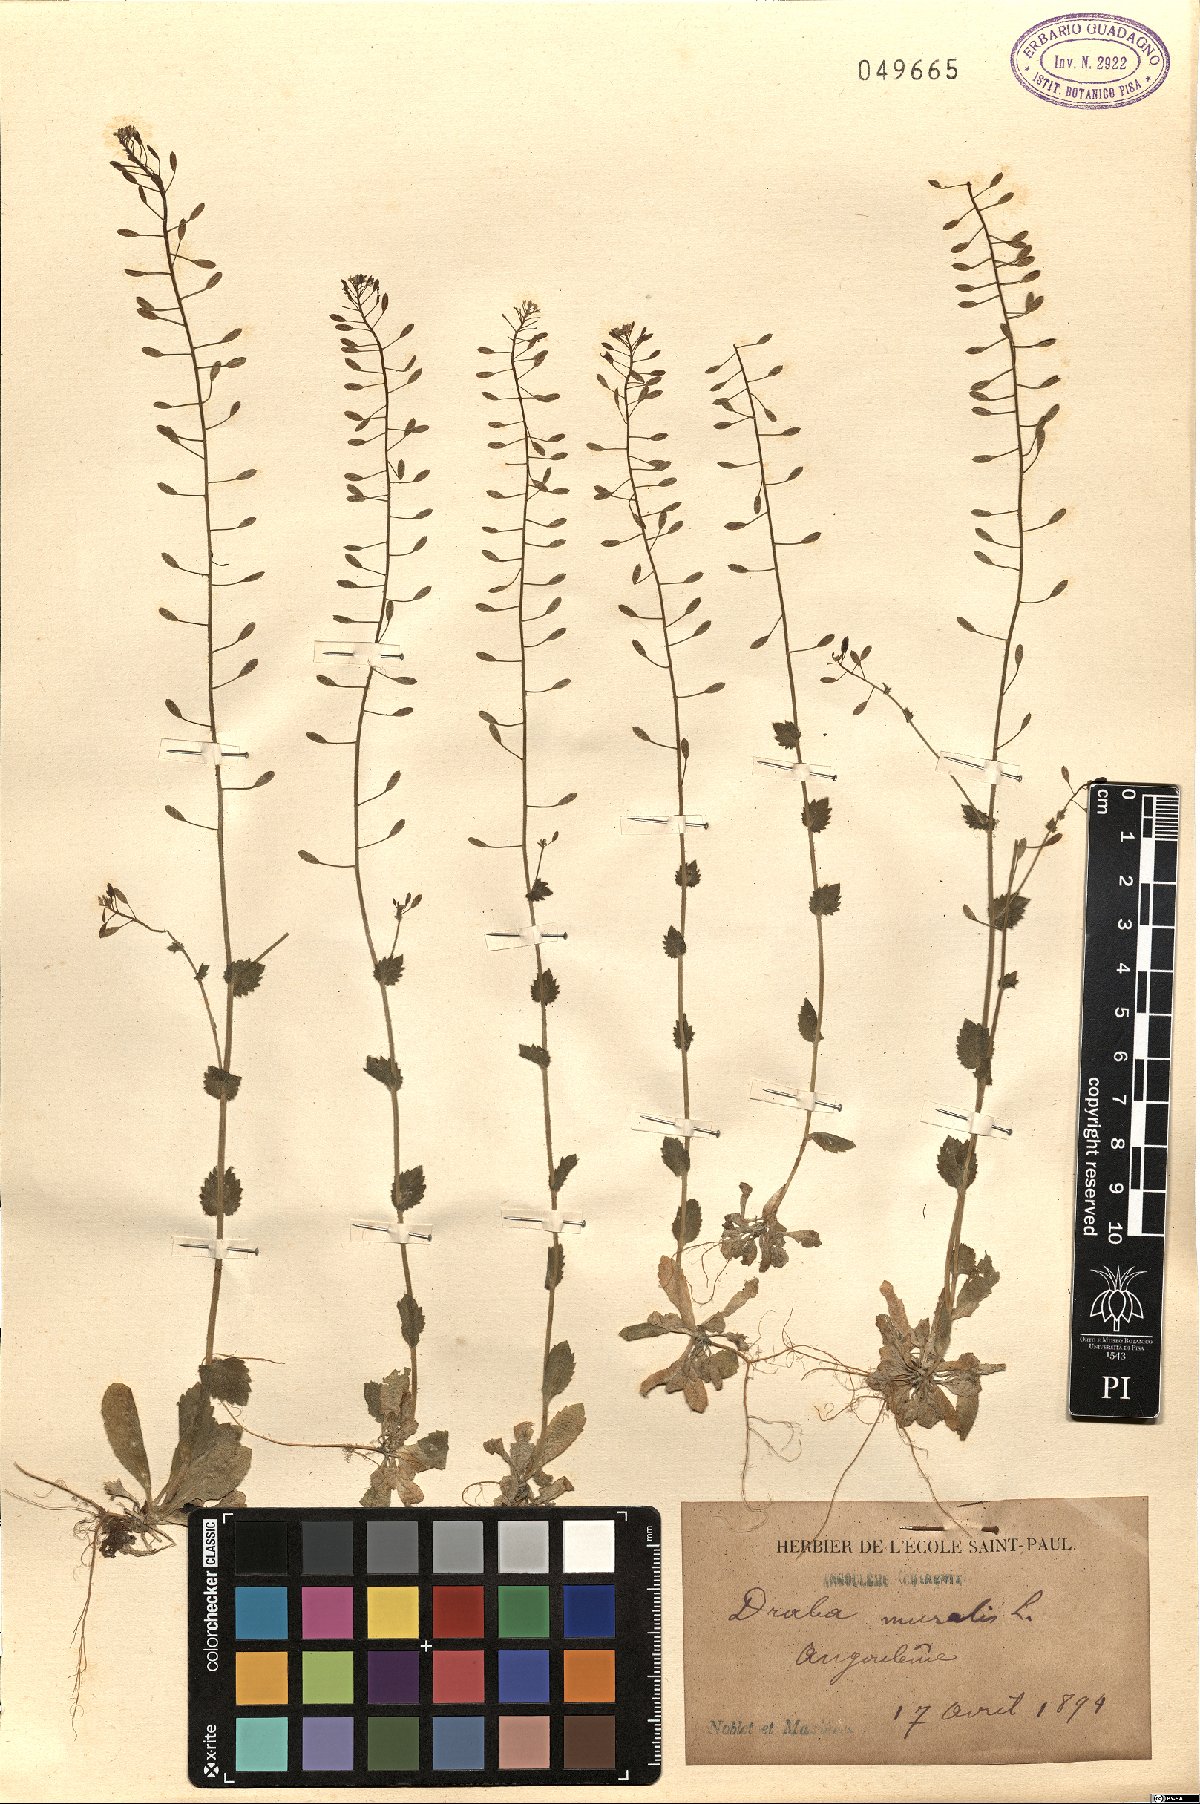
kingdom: Plantae
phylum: Tracheophyta
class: Magnoliopsida
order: Brassicales
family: Brassicaceae
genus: Drabella
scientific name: Drabella muralis
